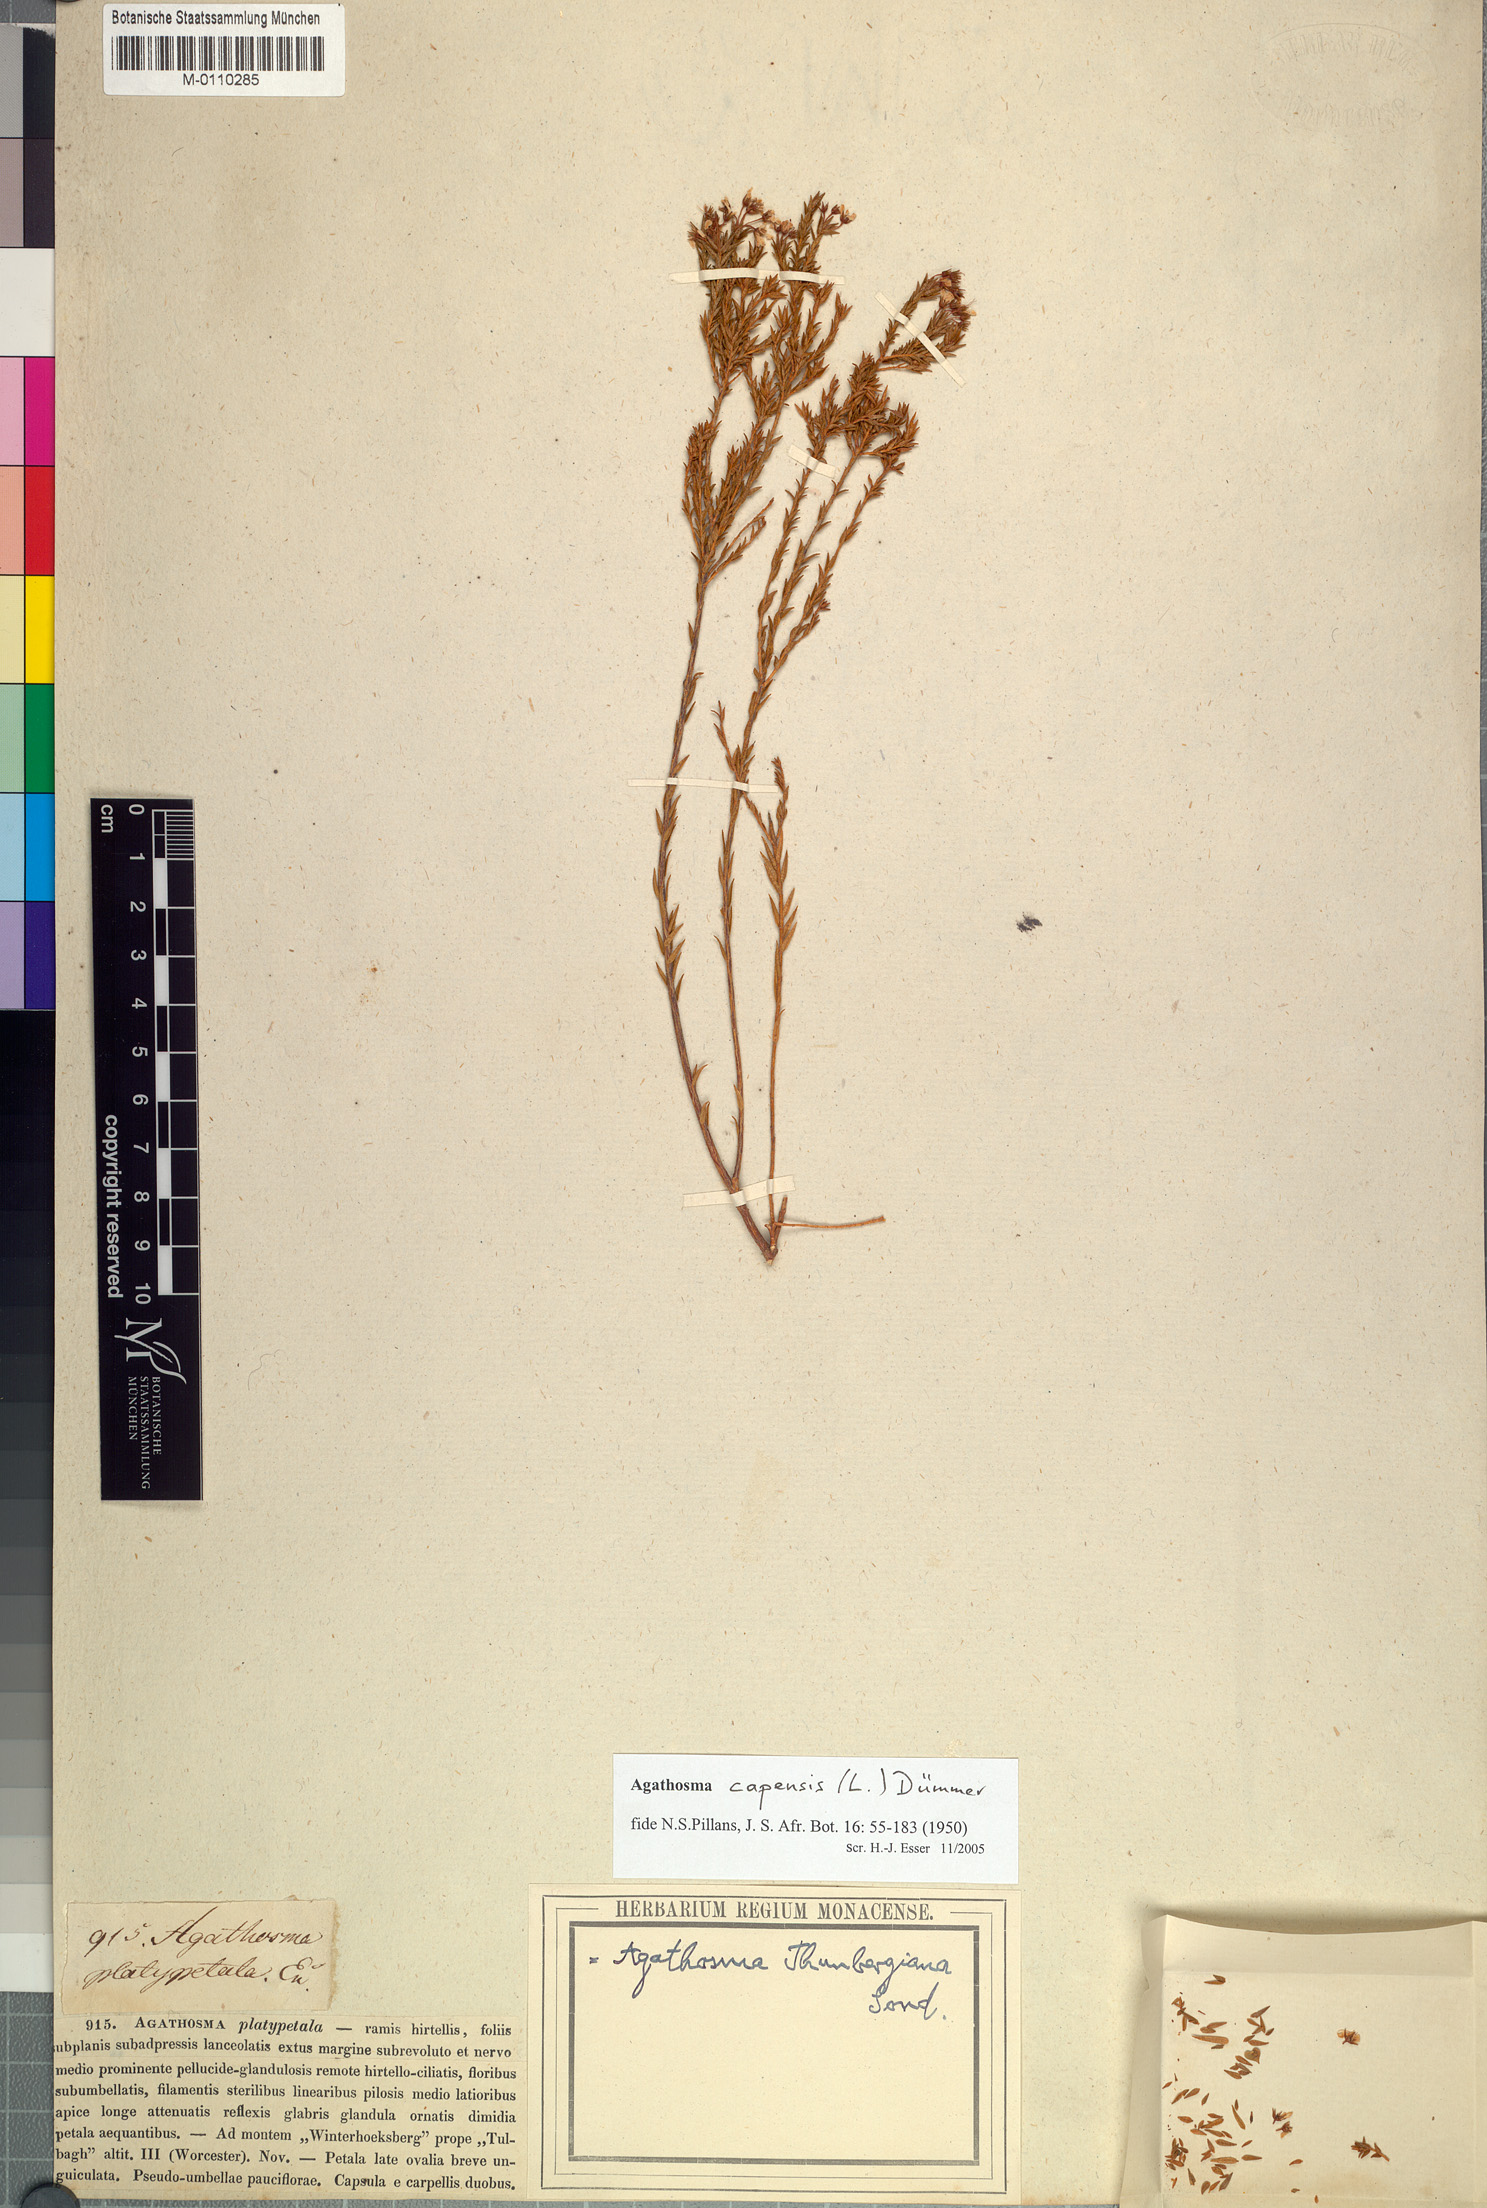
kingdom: Plantae
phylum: Tracheophyta
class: Magnoliopsida
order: Sapindales
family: Rutaceae
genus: Agathosma
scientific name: Agathosma capensis
